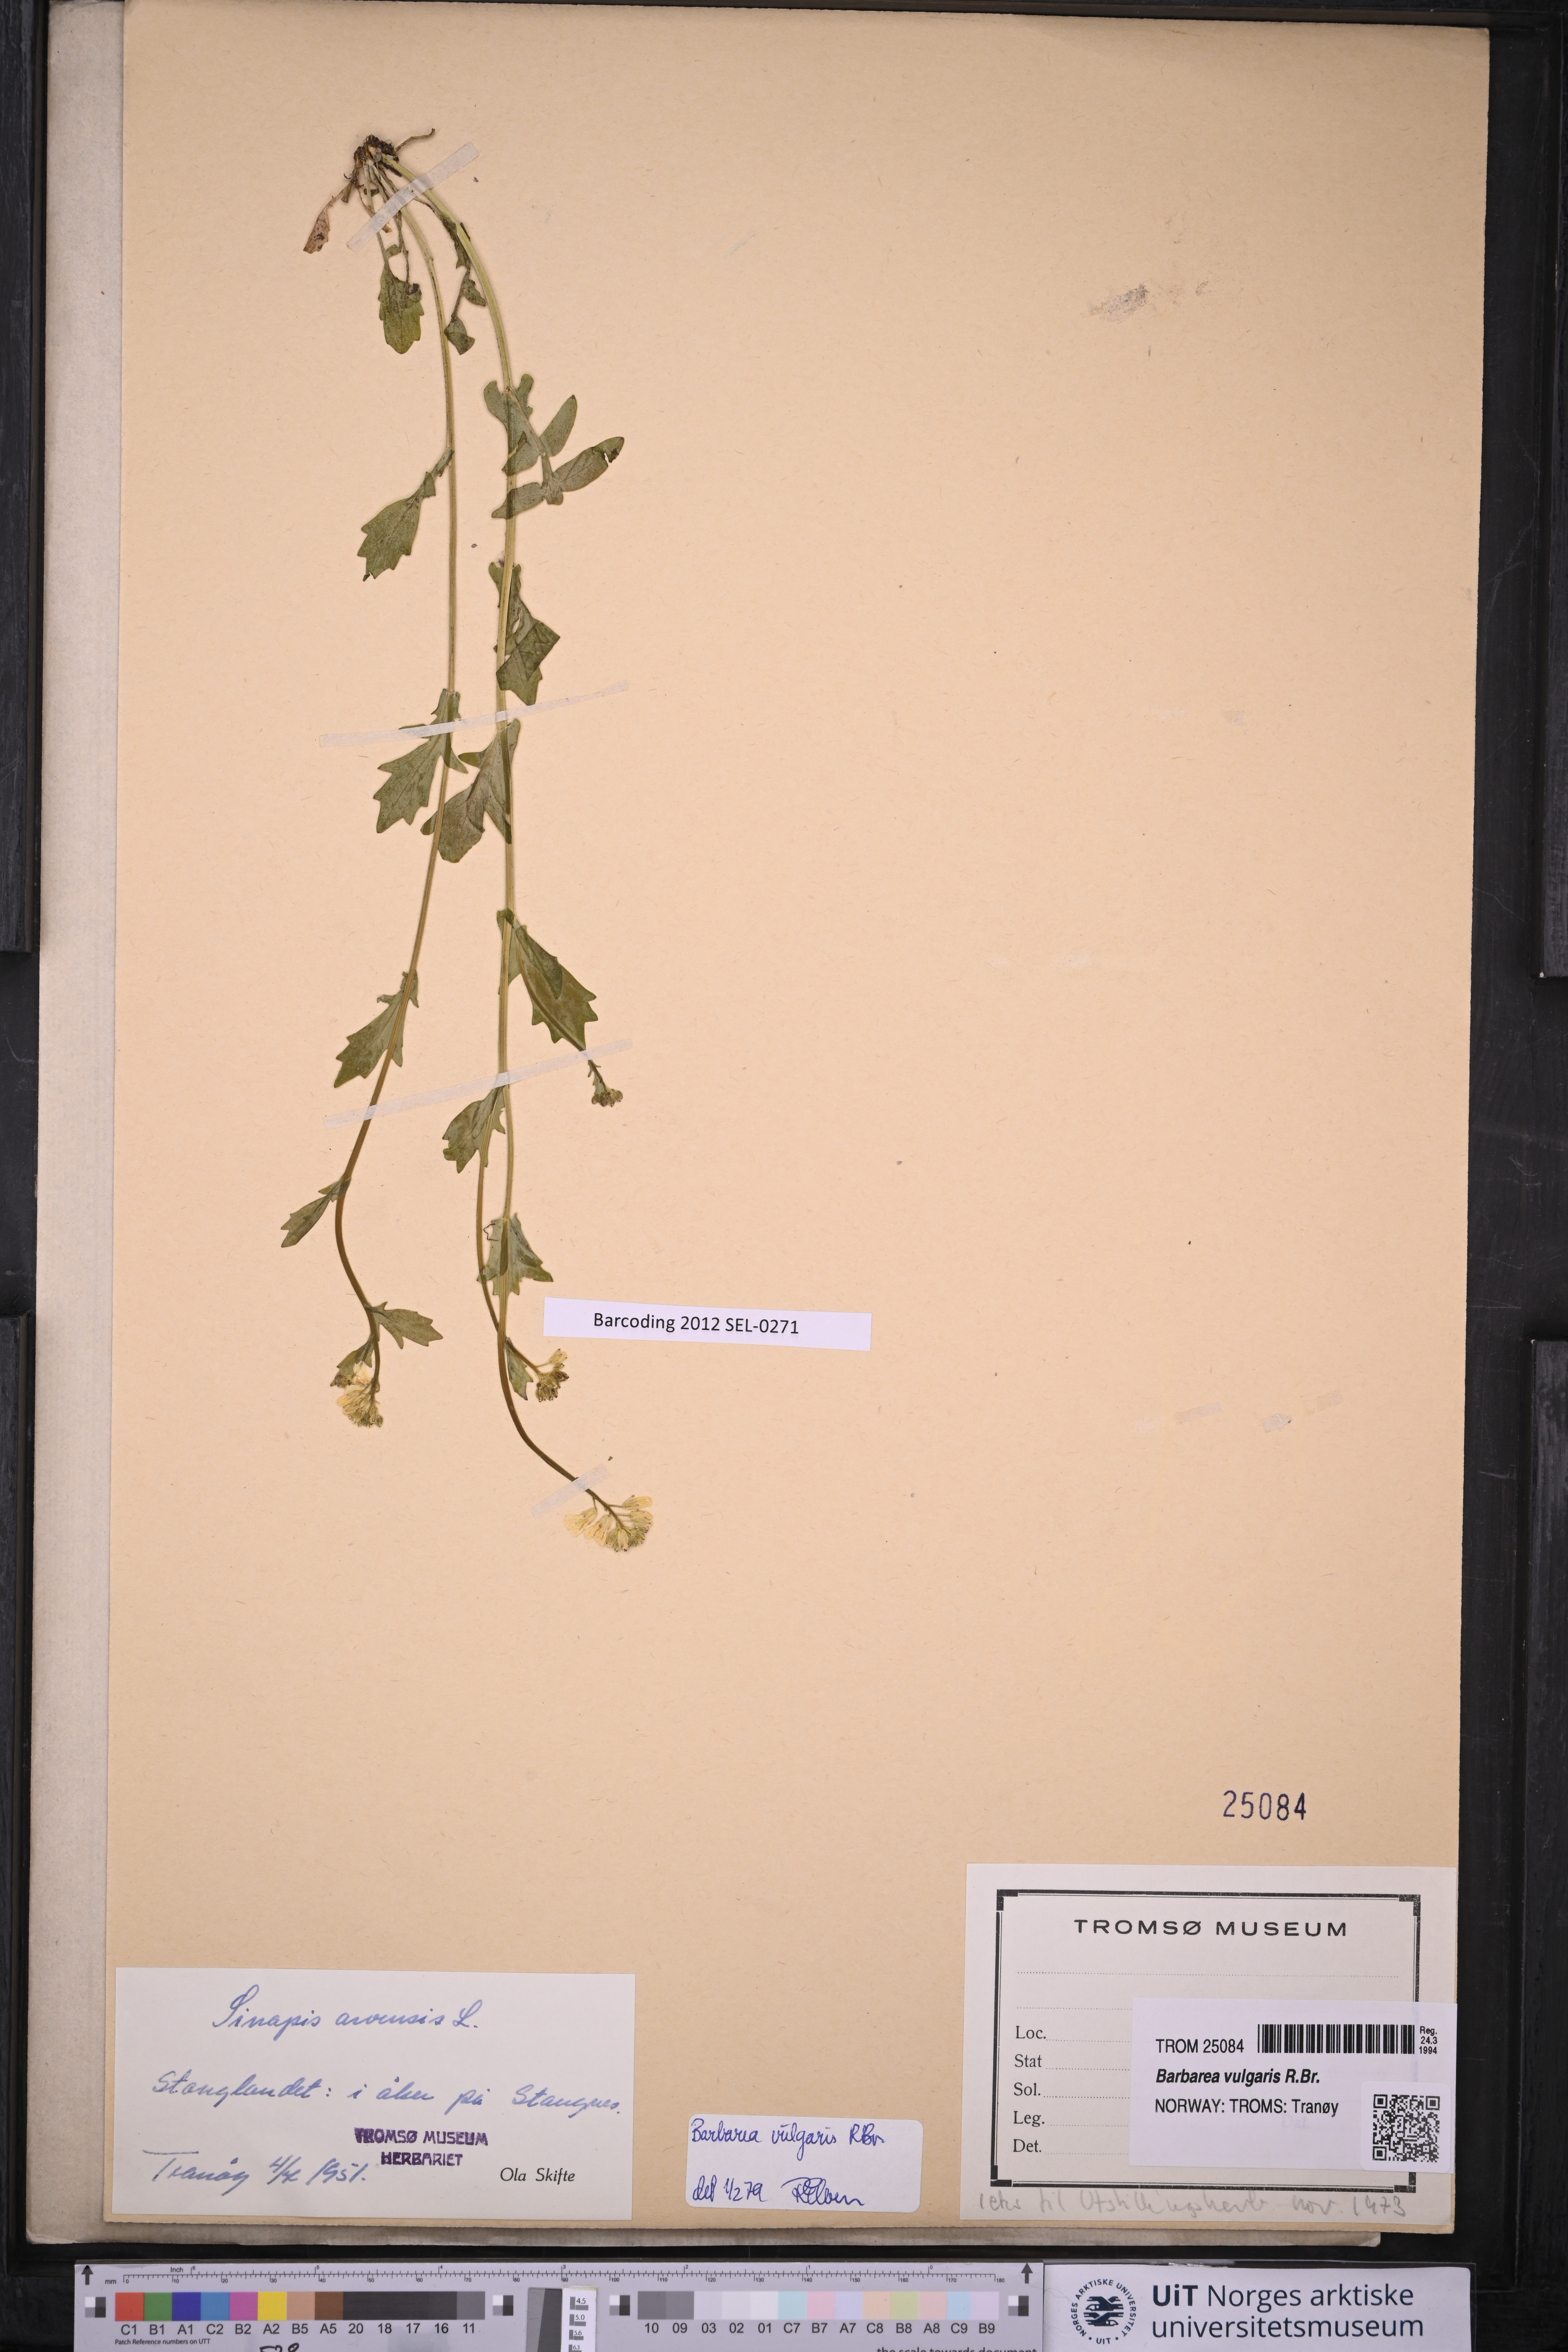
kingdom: Plantae
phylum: Tracheophyta
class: Magnoliopsida
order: Brassicales
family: Brassicaceae
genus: Barbarea
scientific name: Barbarea vulgaris
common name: Cressy-greens
